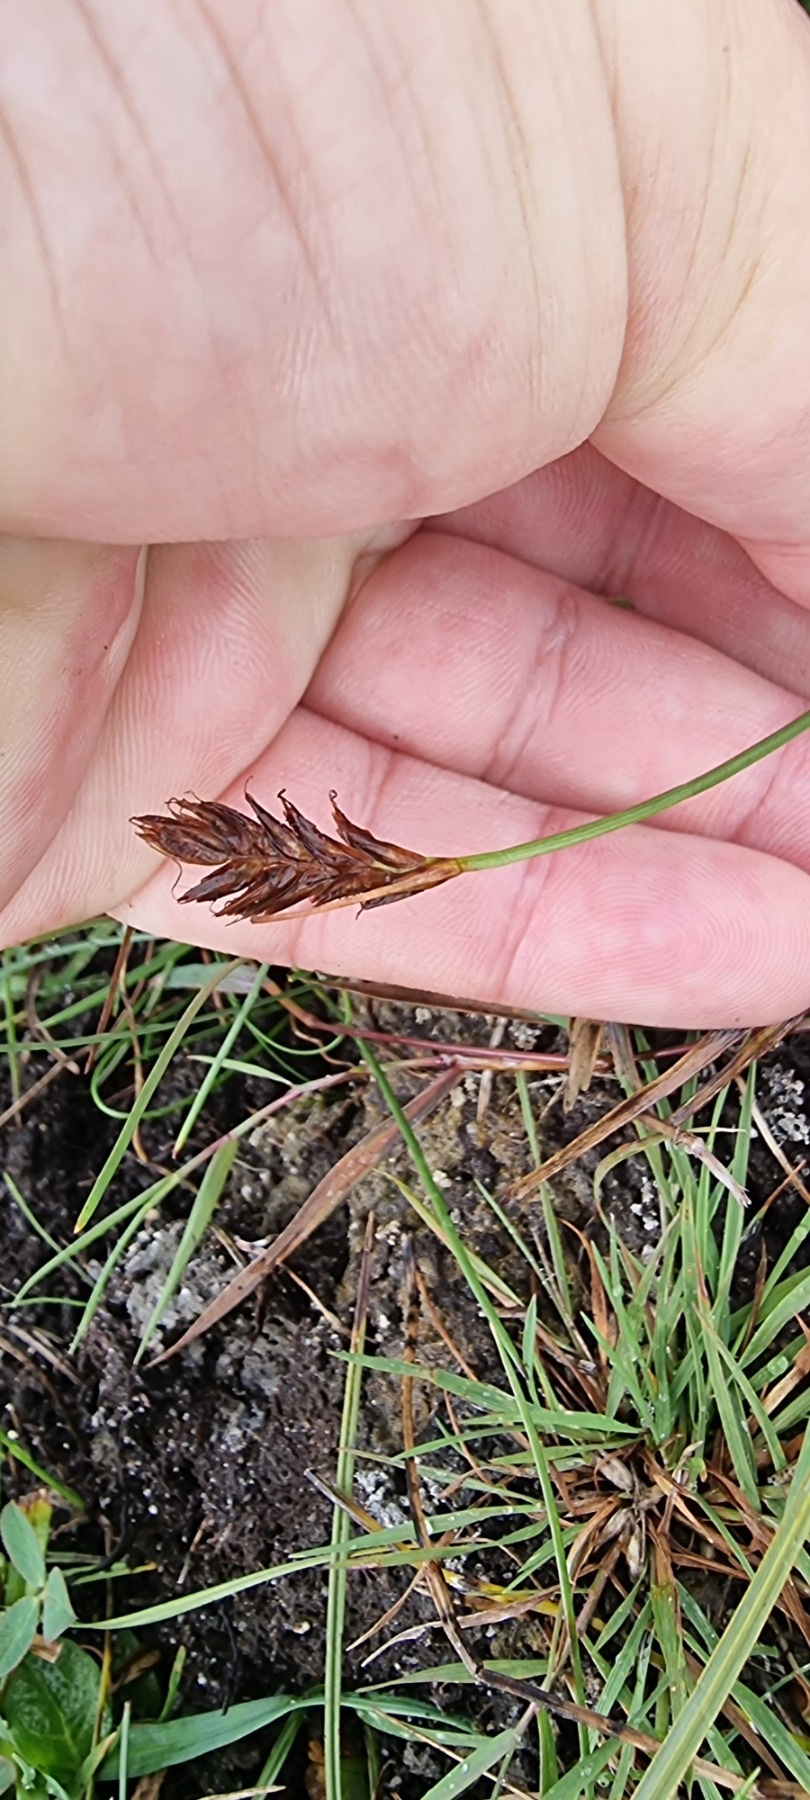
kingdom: Plantae
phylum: Tracheophyta
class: Liliopsida
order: Poales
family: Cyperaceae
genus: Blysmus
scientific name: Blysmus rufus
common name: Rødbrun kogleaks
